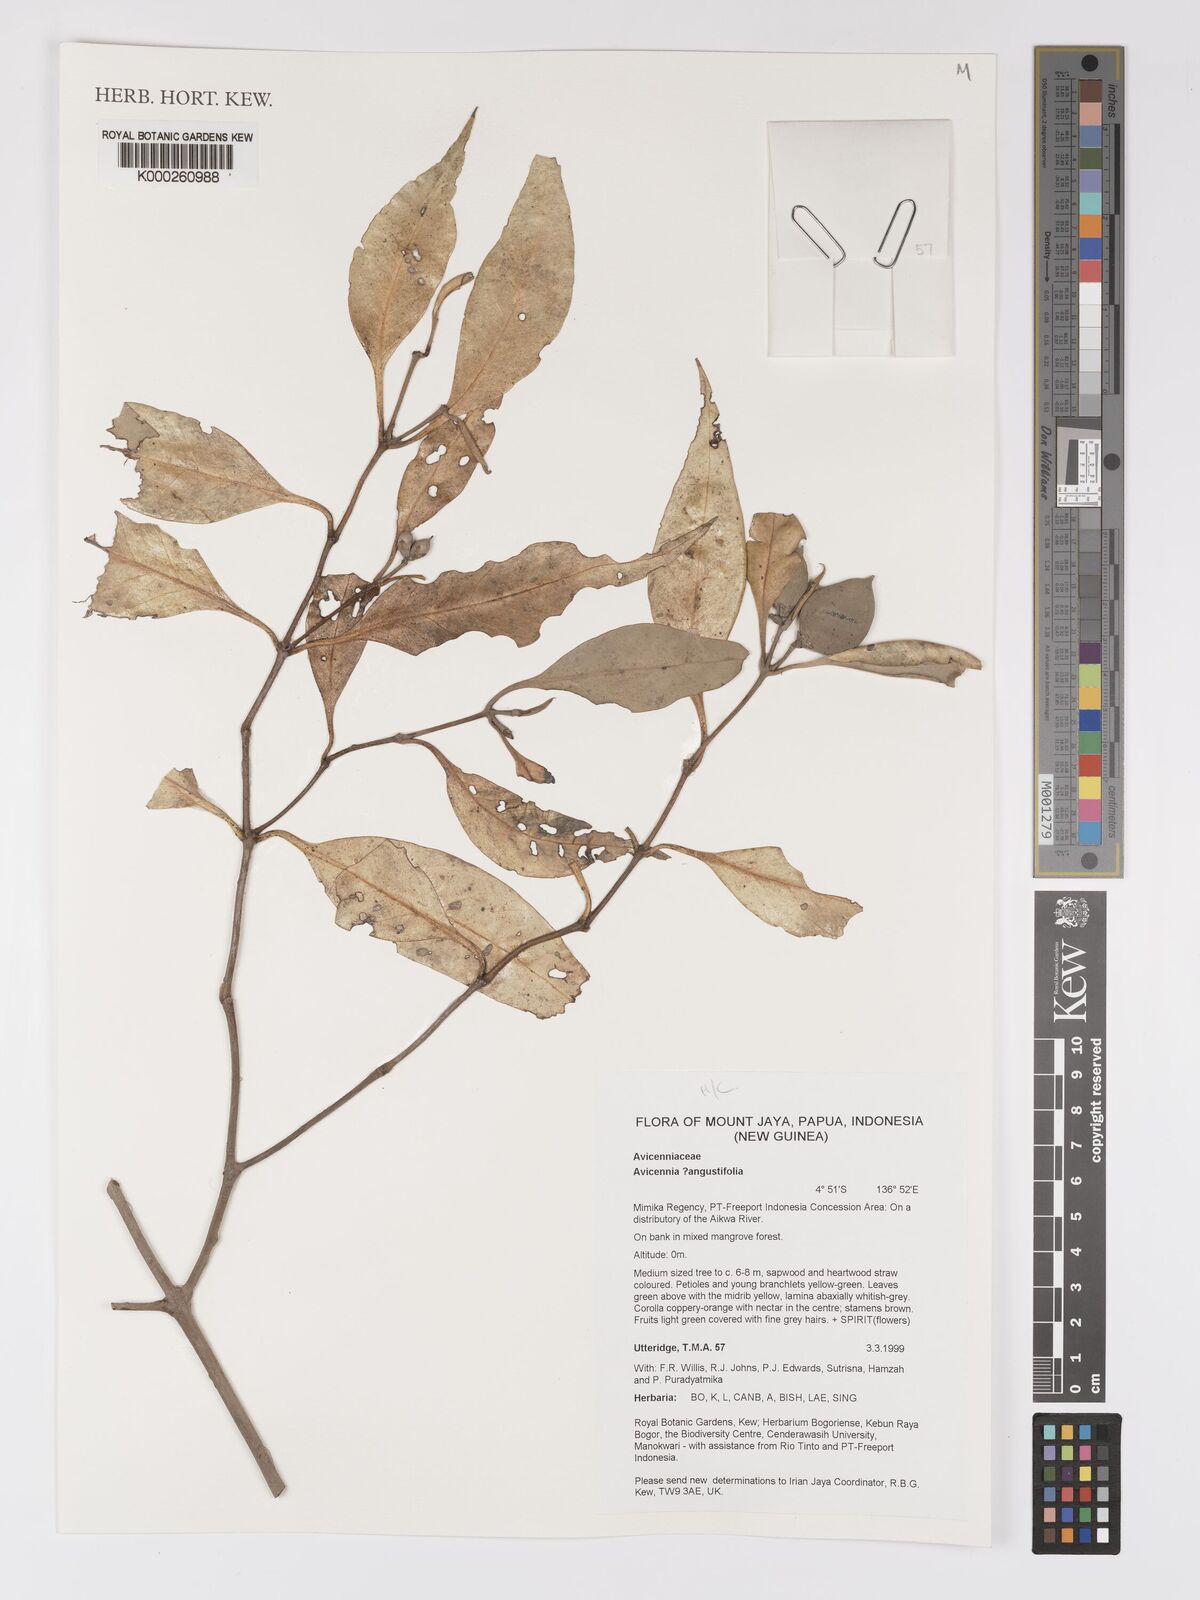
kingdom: Plantae
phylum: Tracheophyta
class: Magnoliopsida
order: Lamiales
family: Acanthaceae
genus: Avicennia
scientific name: Avicennia
